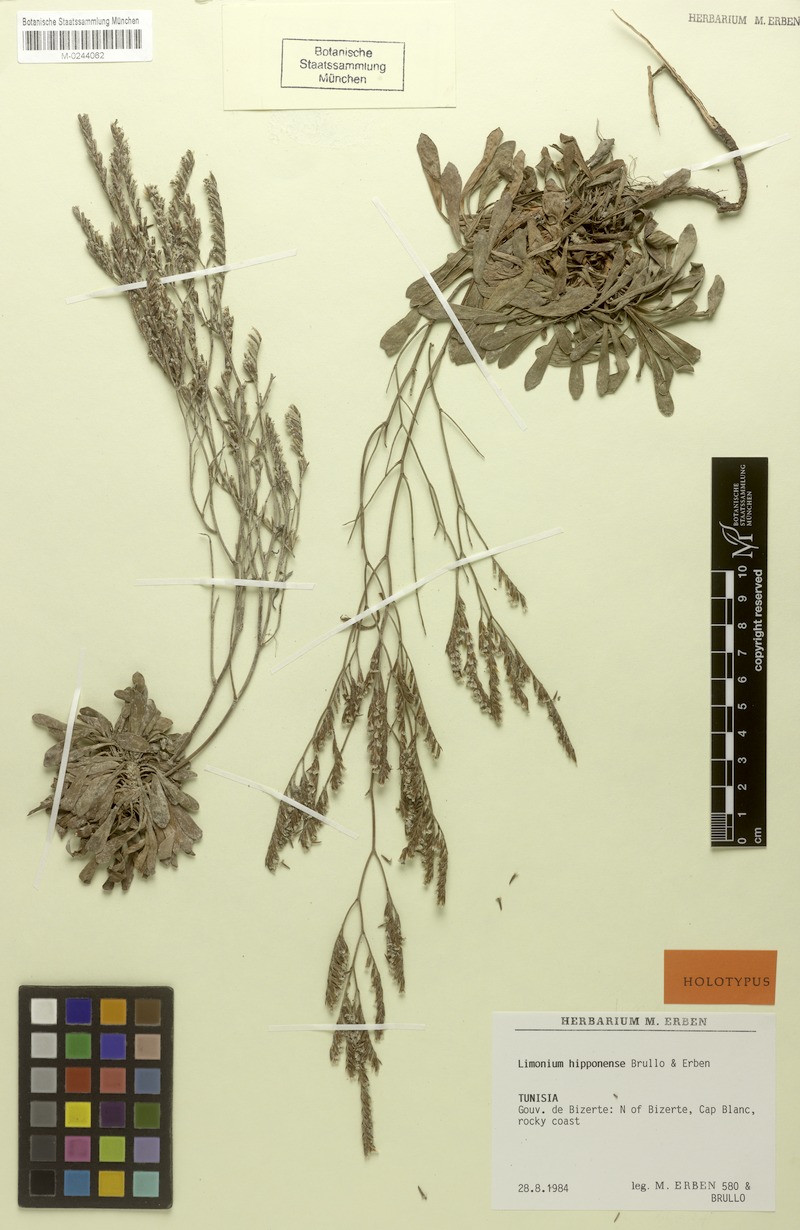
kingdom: Plantae
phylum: Tracheophyta
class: Magnoliopsida
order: Caryophyllales
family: Plumbaginaceae
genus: Limonium
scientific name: Limonium hipponense
